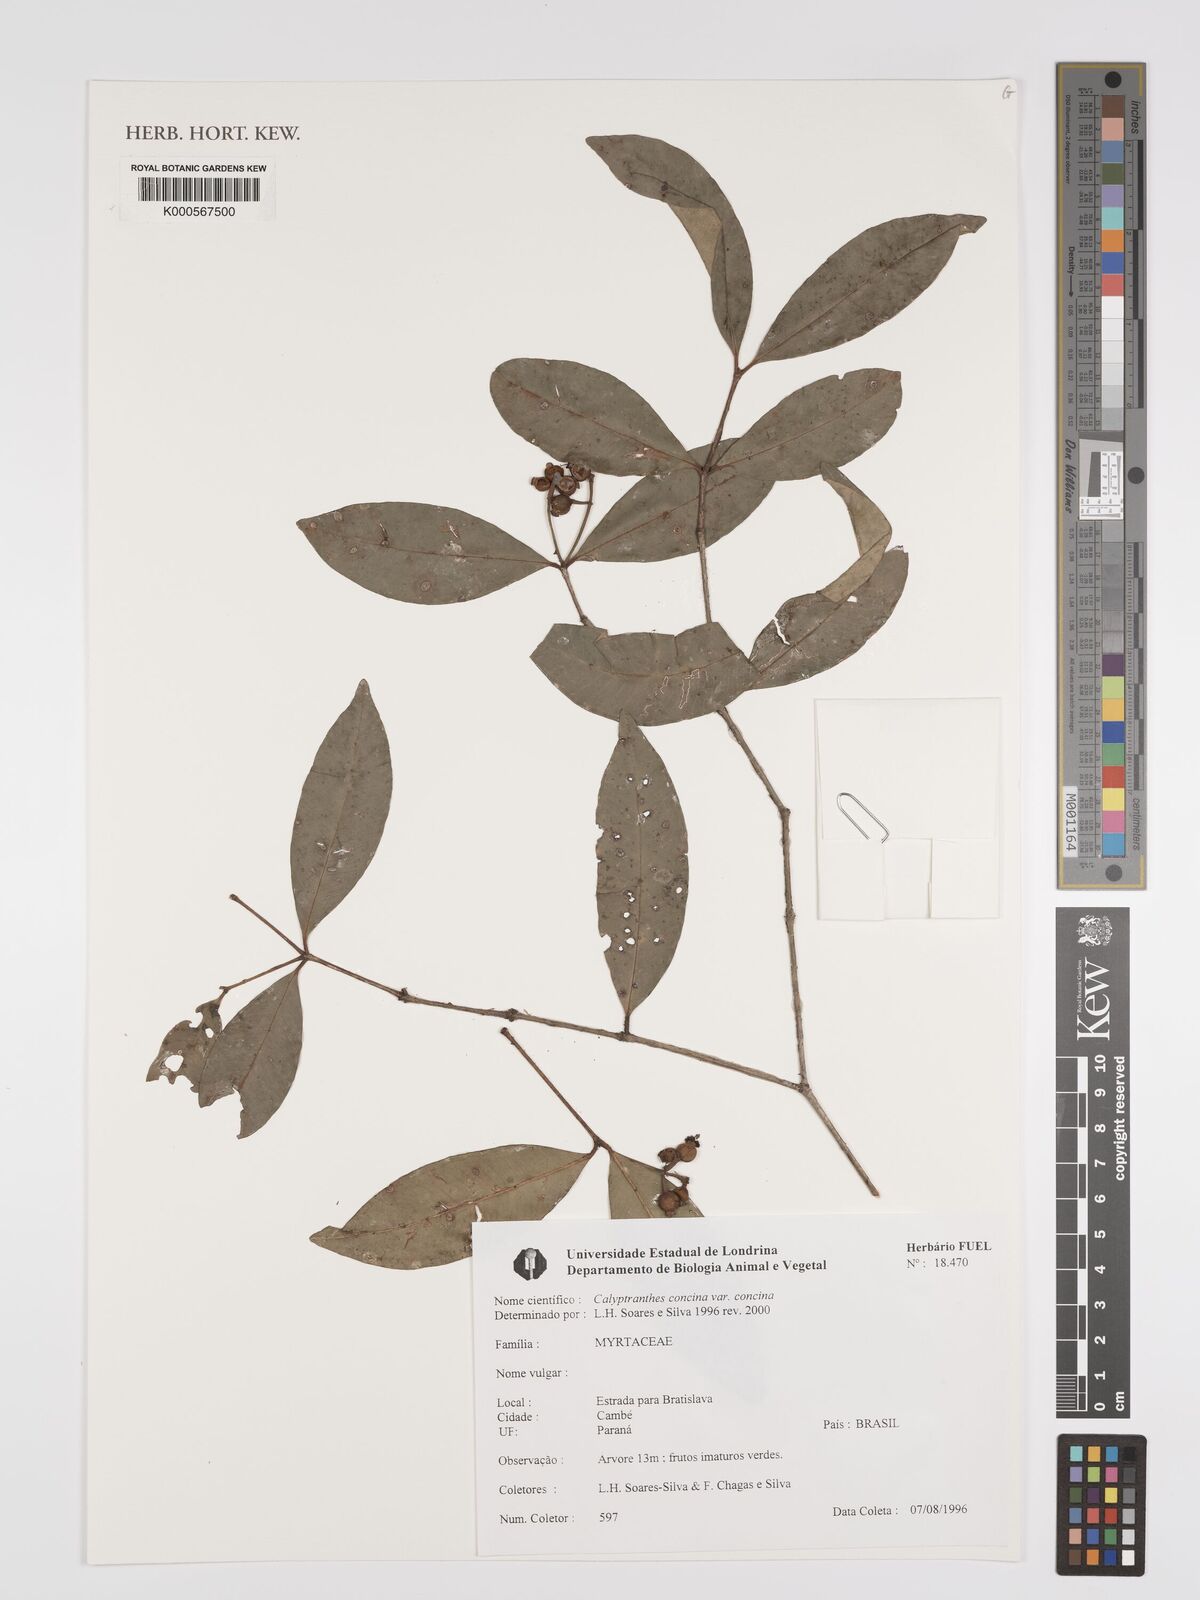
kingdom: Plantae
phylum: Tracheophyta
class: Magnoliopsida
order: Myrtales
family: Myrtaceae
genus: Myrcia
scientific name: Myrcia cruciflora
